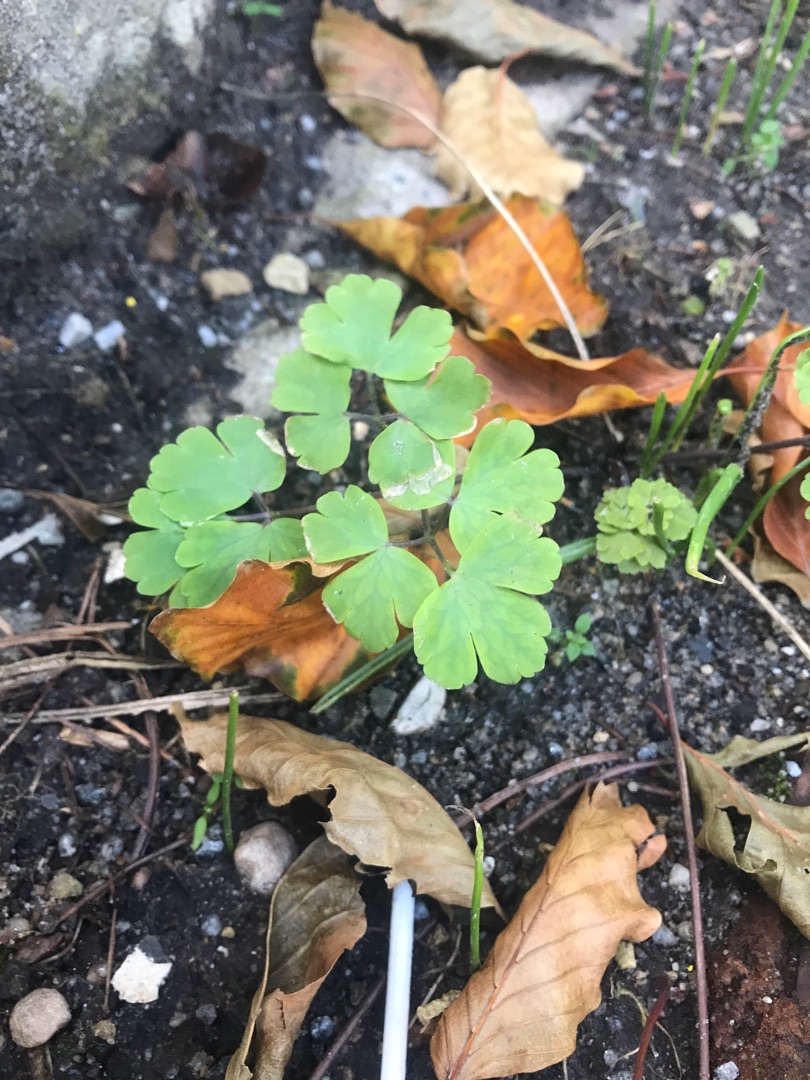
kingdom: Plantae
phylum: Tracheophyta
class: Magnoliopsida
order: Ranunculales
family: Ranunculaceae
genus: Aquilegia
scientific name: Aquilegia vulgaris
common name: Akeleje
